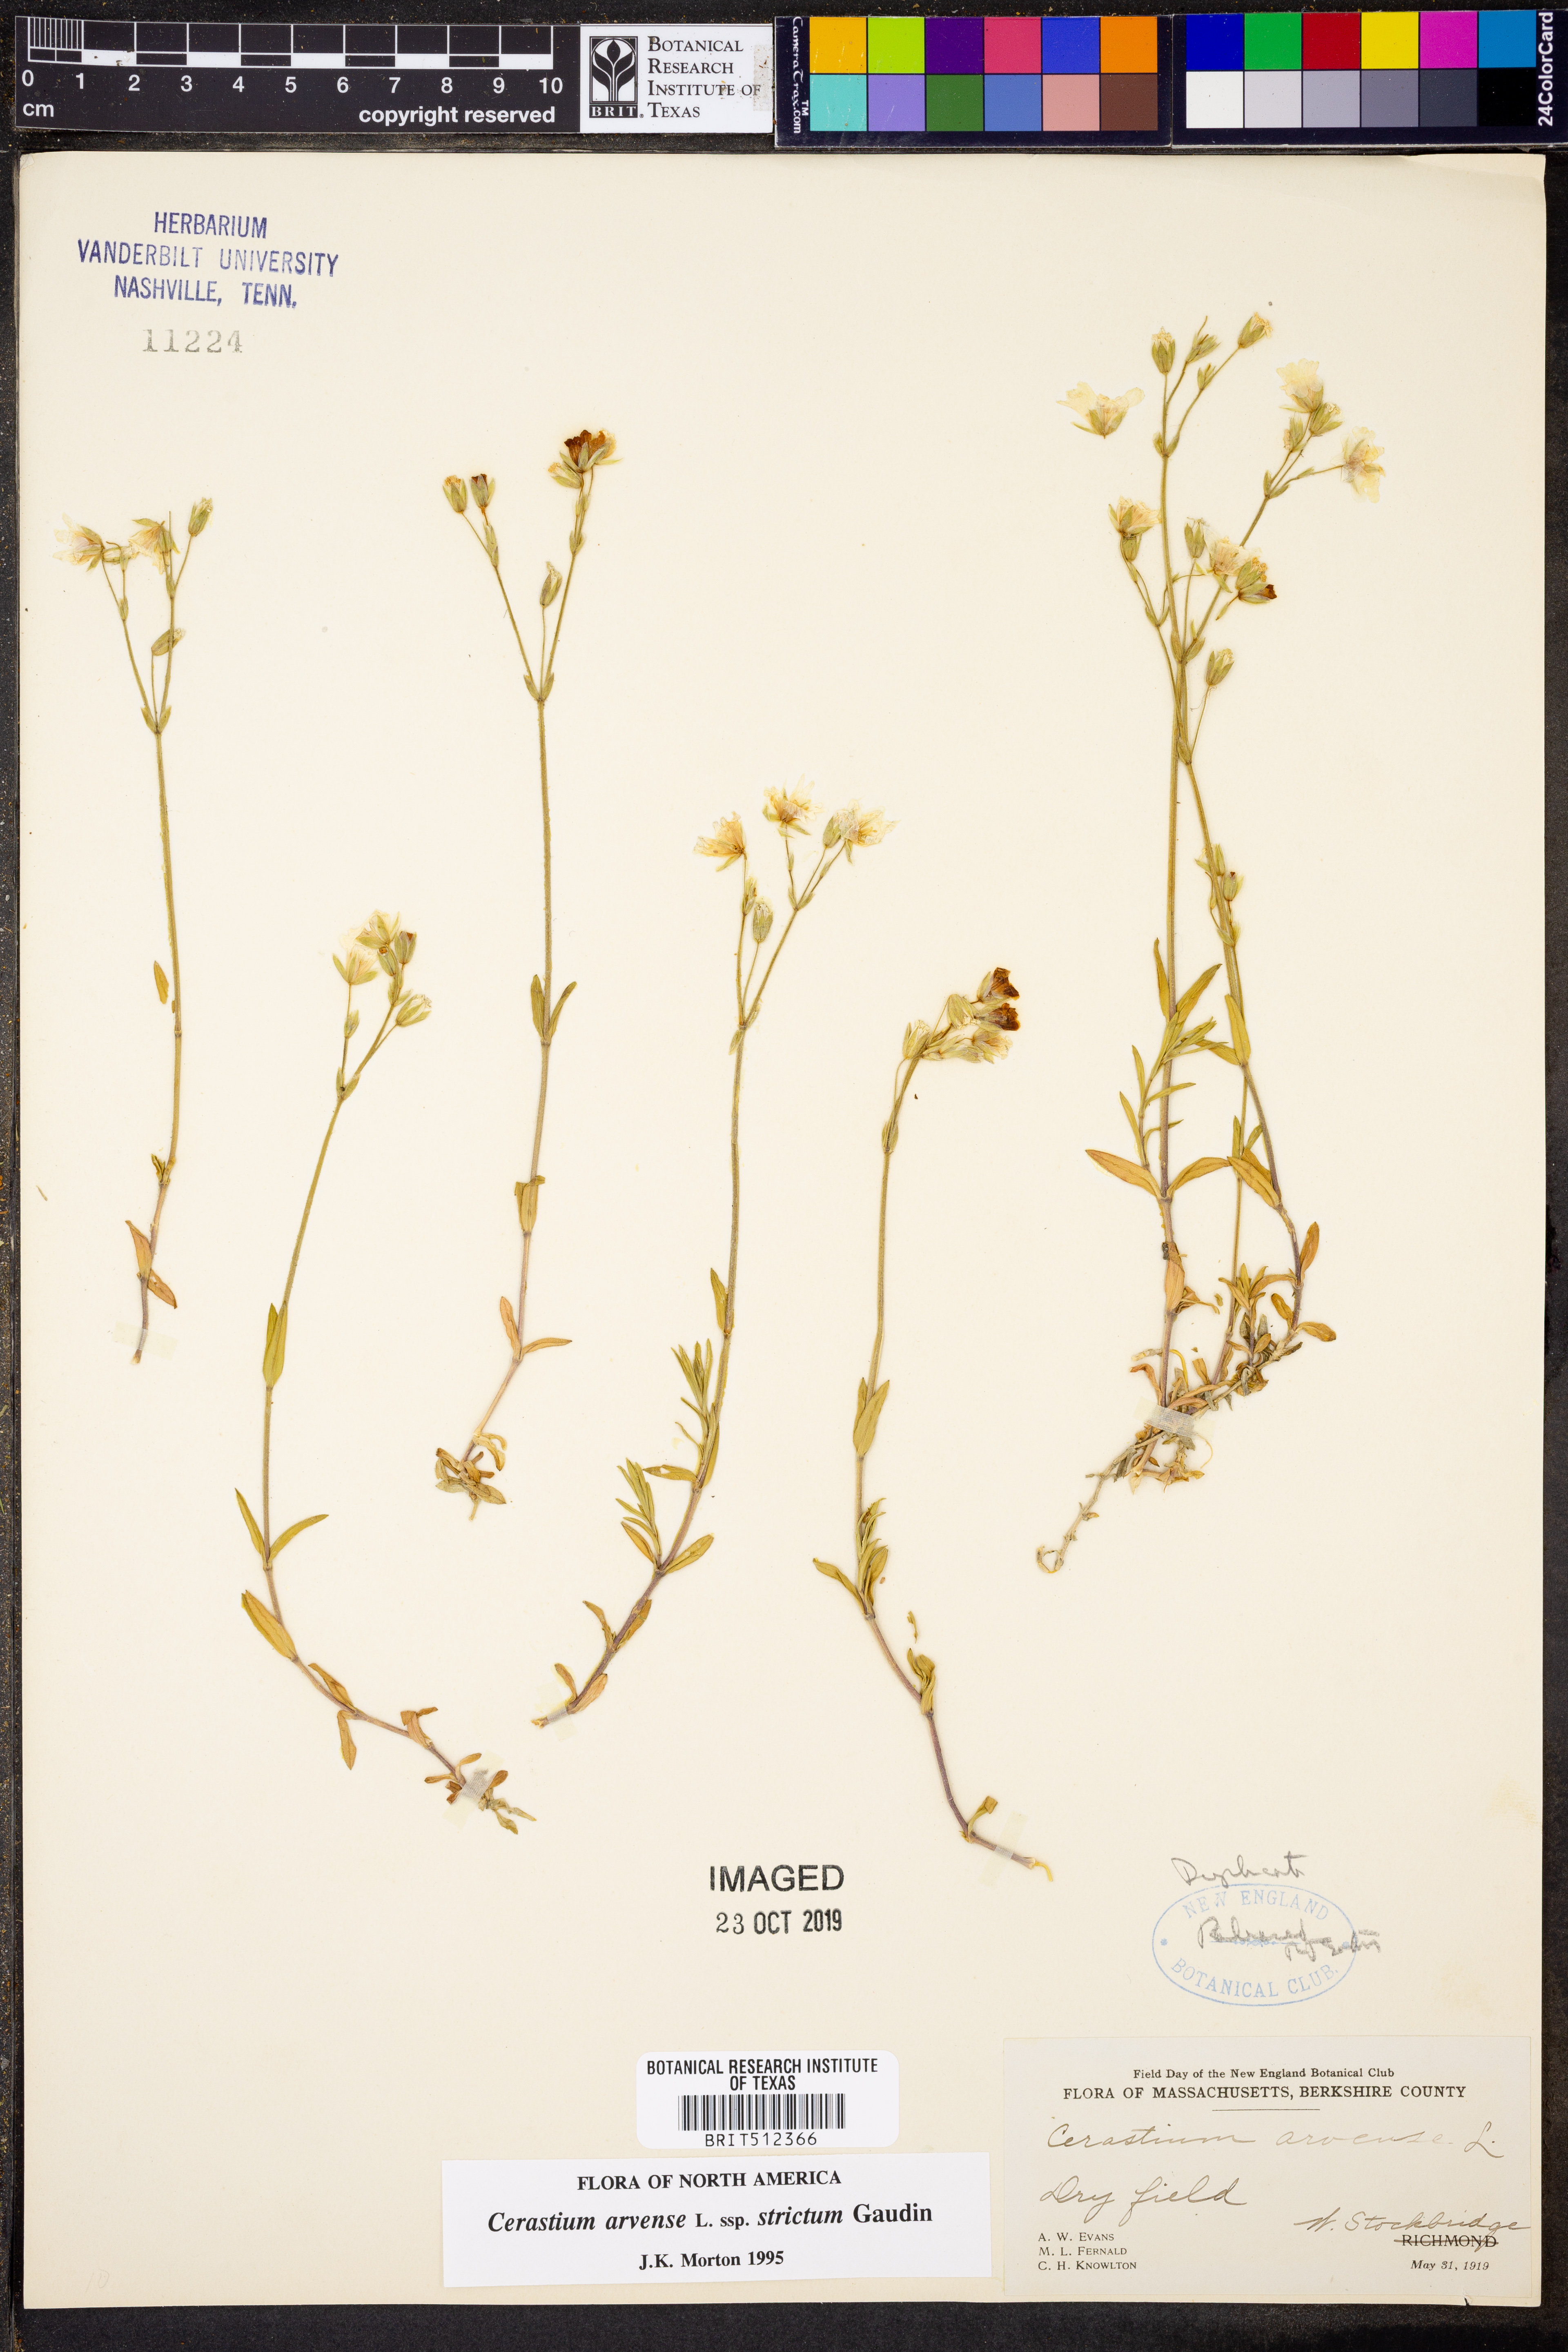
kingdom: Plantae
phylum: Tracheophyta
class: Magnoliopsida
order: Caryophyllales
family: Caryophyllaceae
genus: Cerastium
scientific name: Cerastium elongatum
